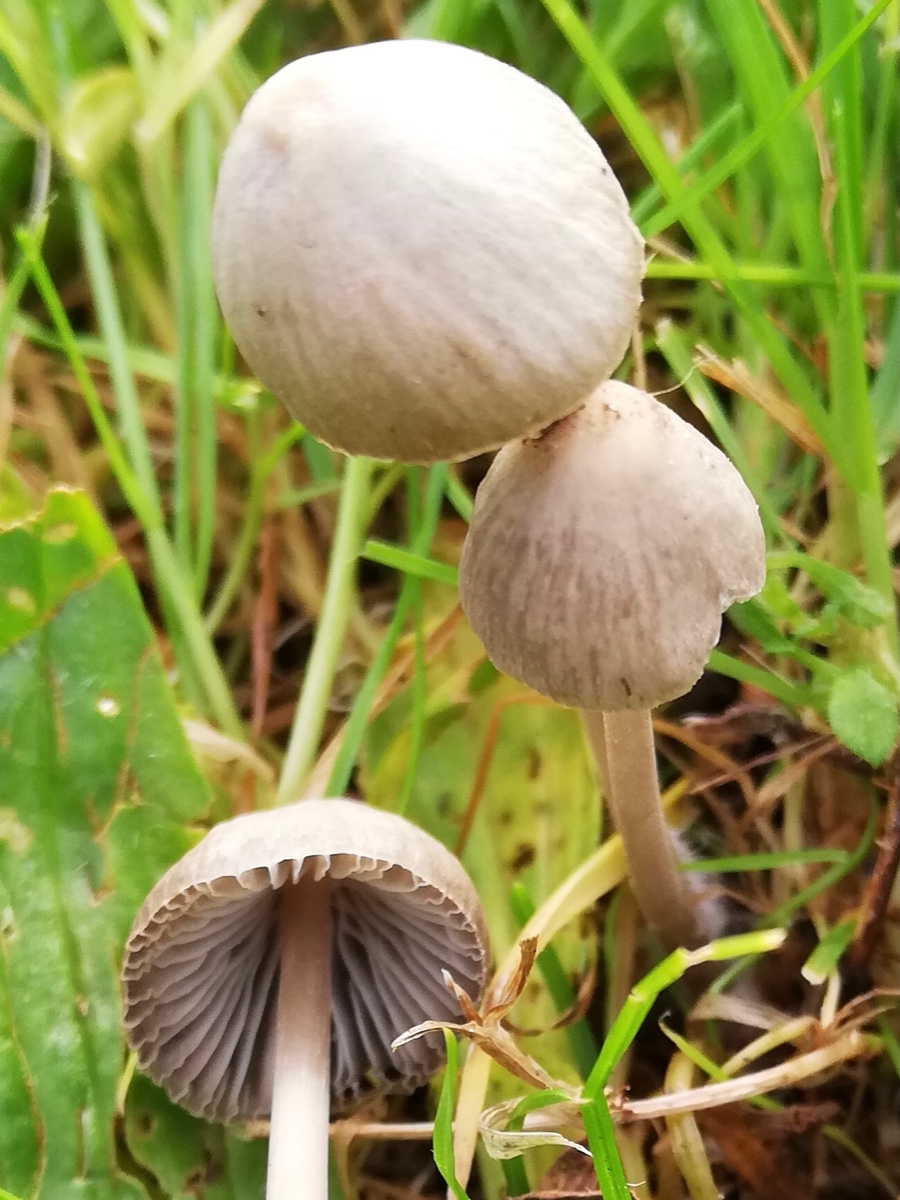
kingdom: Fungi
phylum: Basidiomycota
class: Agaricomycetes
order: Agaricales
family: Psathyrellaceae
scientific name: Psathyrellaceae
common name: mørkhatfamilien
